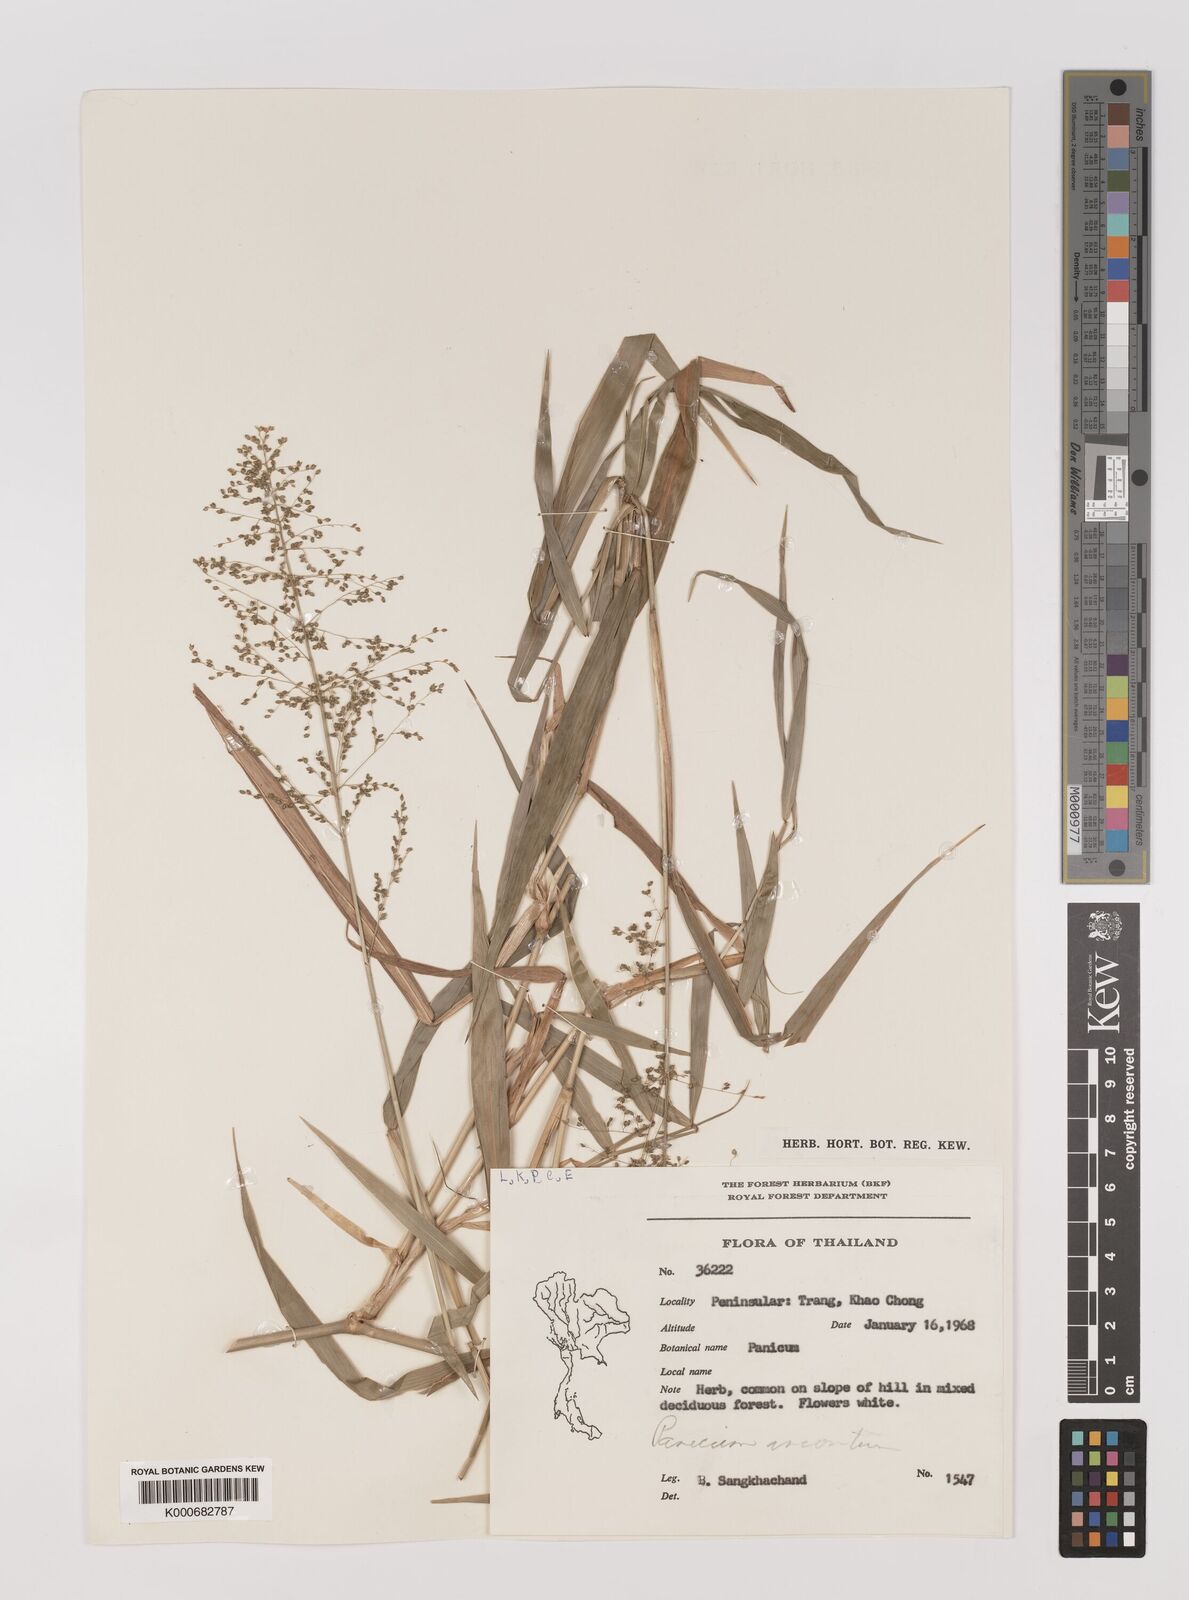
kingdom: Plantae
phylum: Tracheophyta
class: Liliopsida
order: Poales
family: Poaceae
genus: Panicum
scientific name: Panicum sarmentosum
